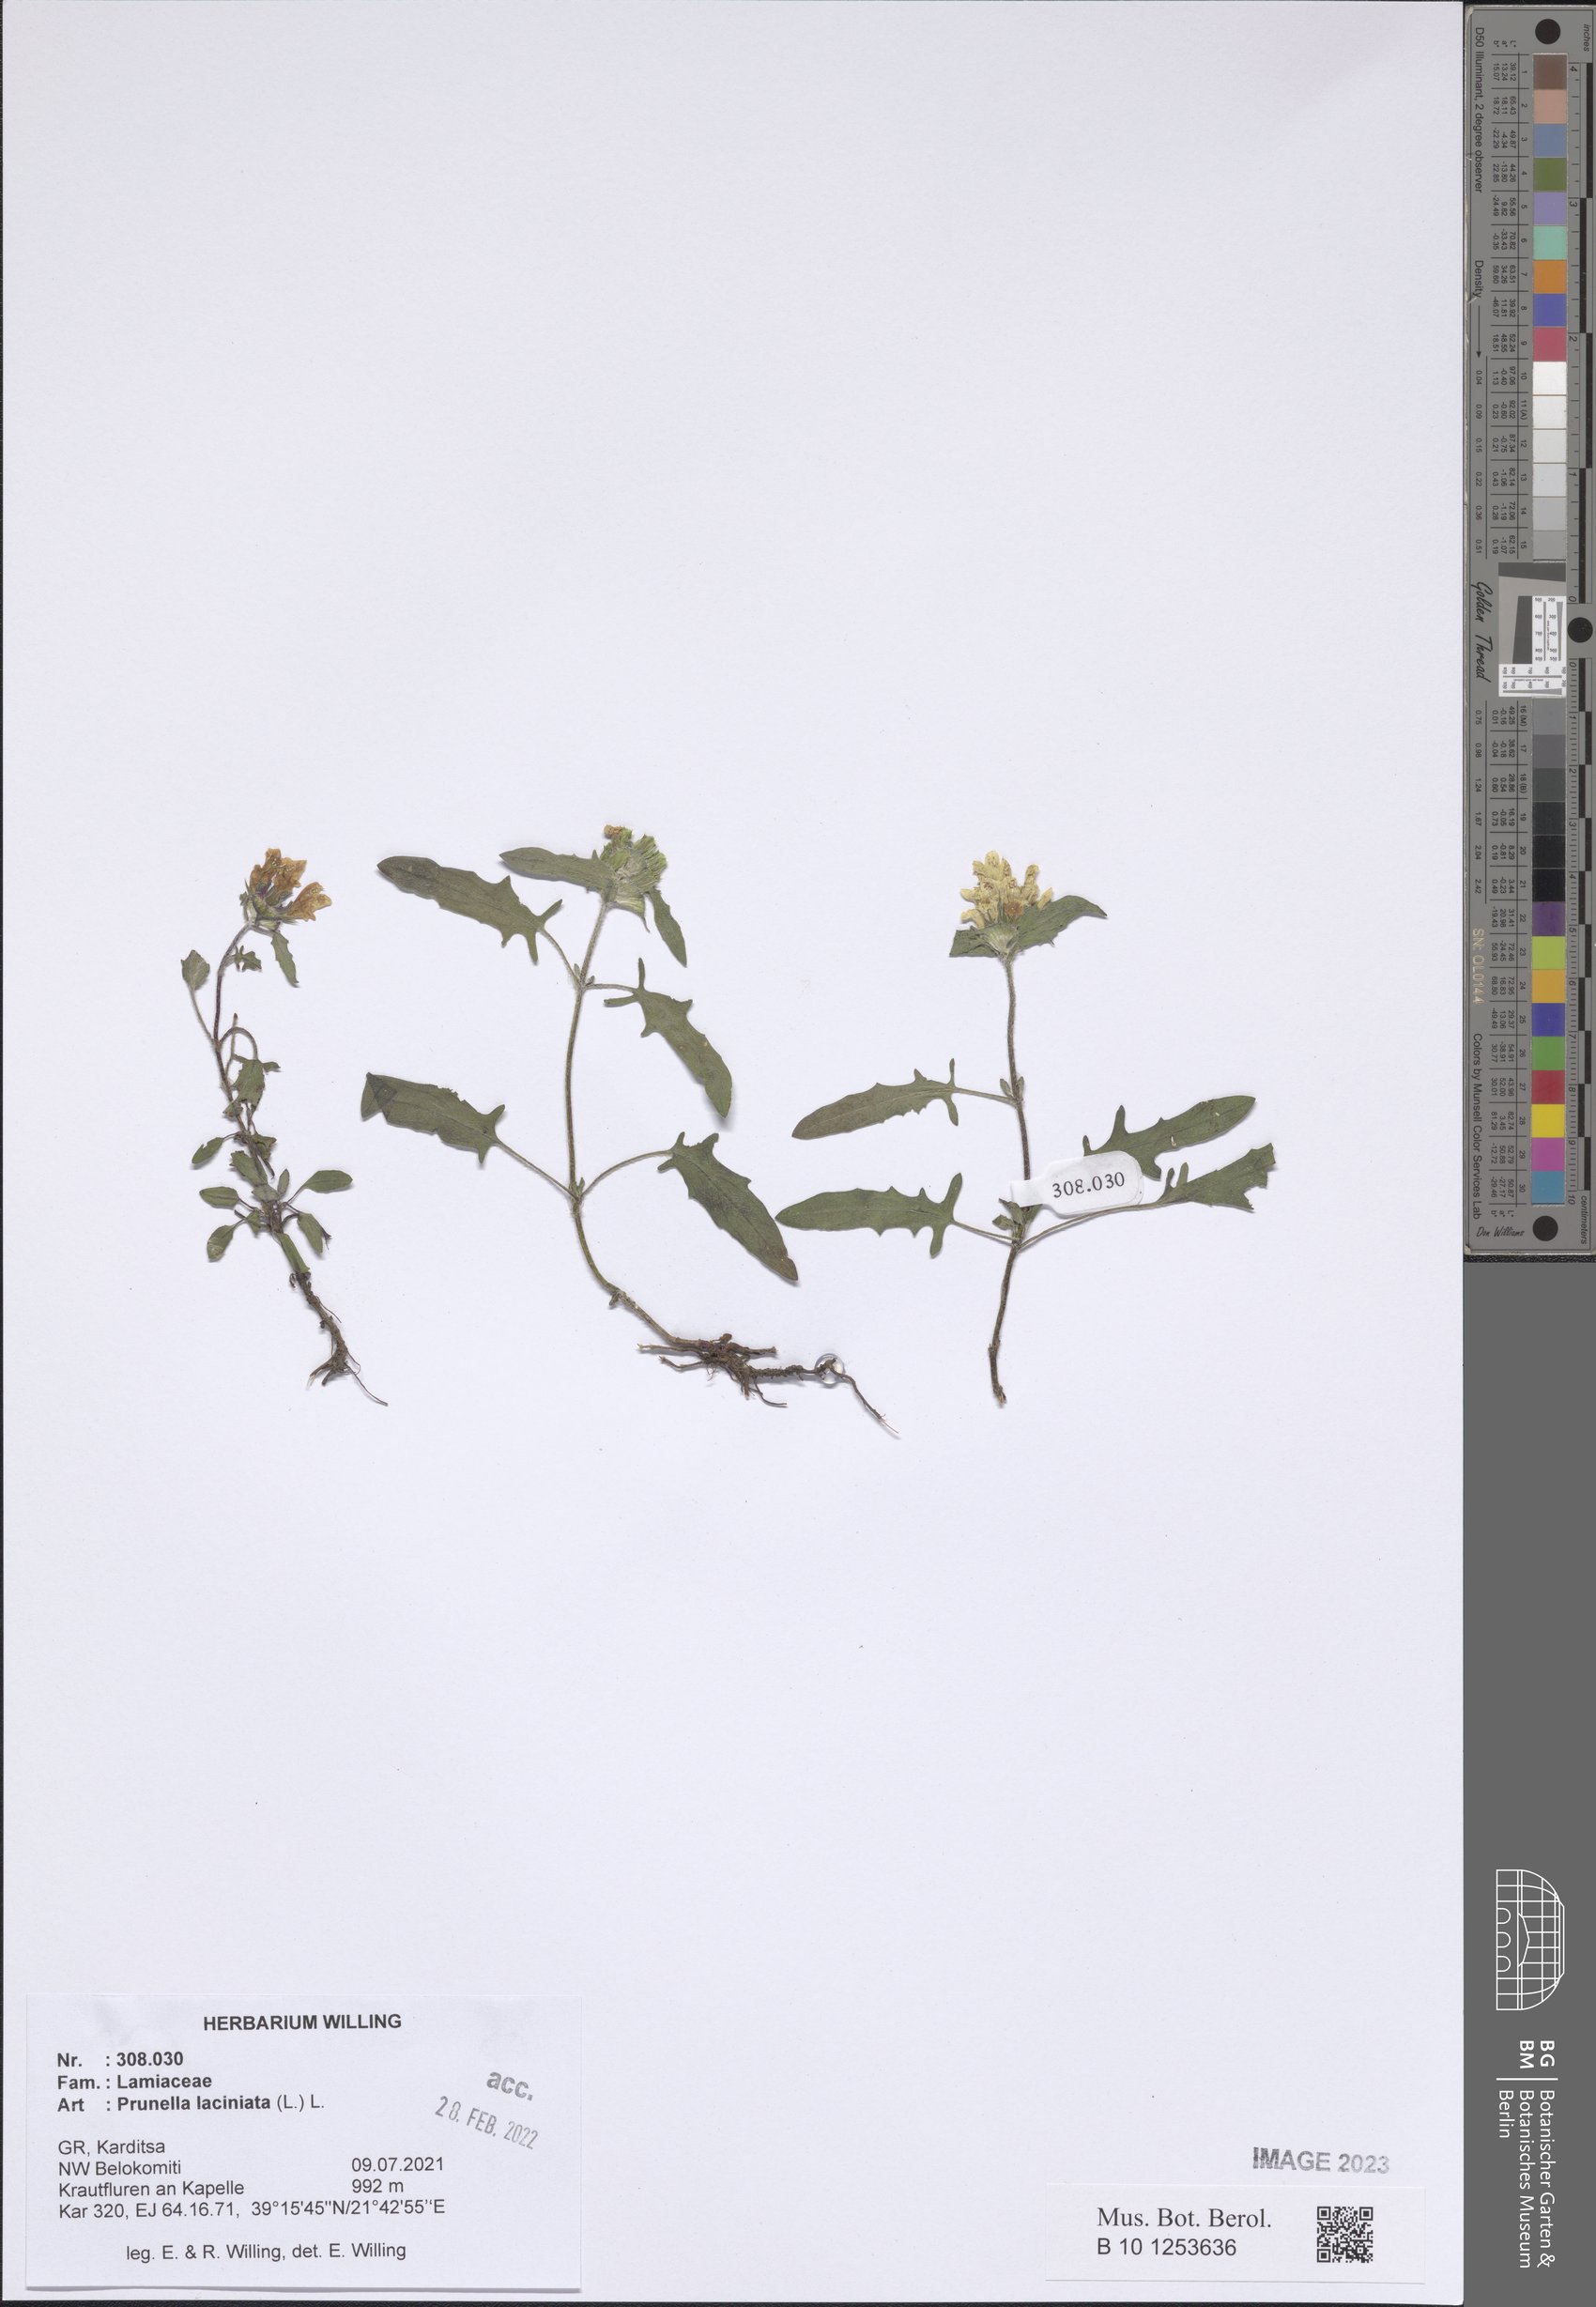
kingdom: Plantae
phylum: Tracheophyta
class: Magnoliopsida
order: Lamiales
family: Lamiaceae
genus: Prunella
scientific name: Prunella laciniata
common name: Cut-leaved selfheal
